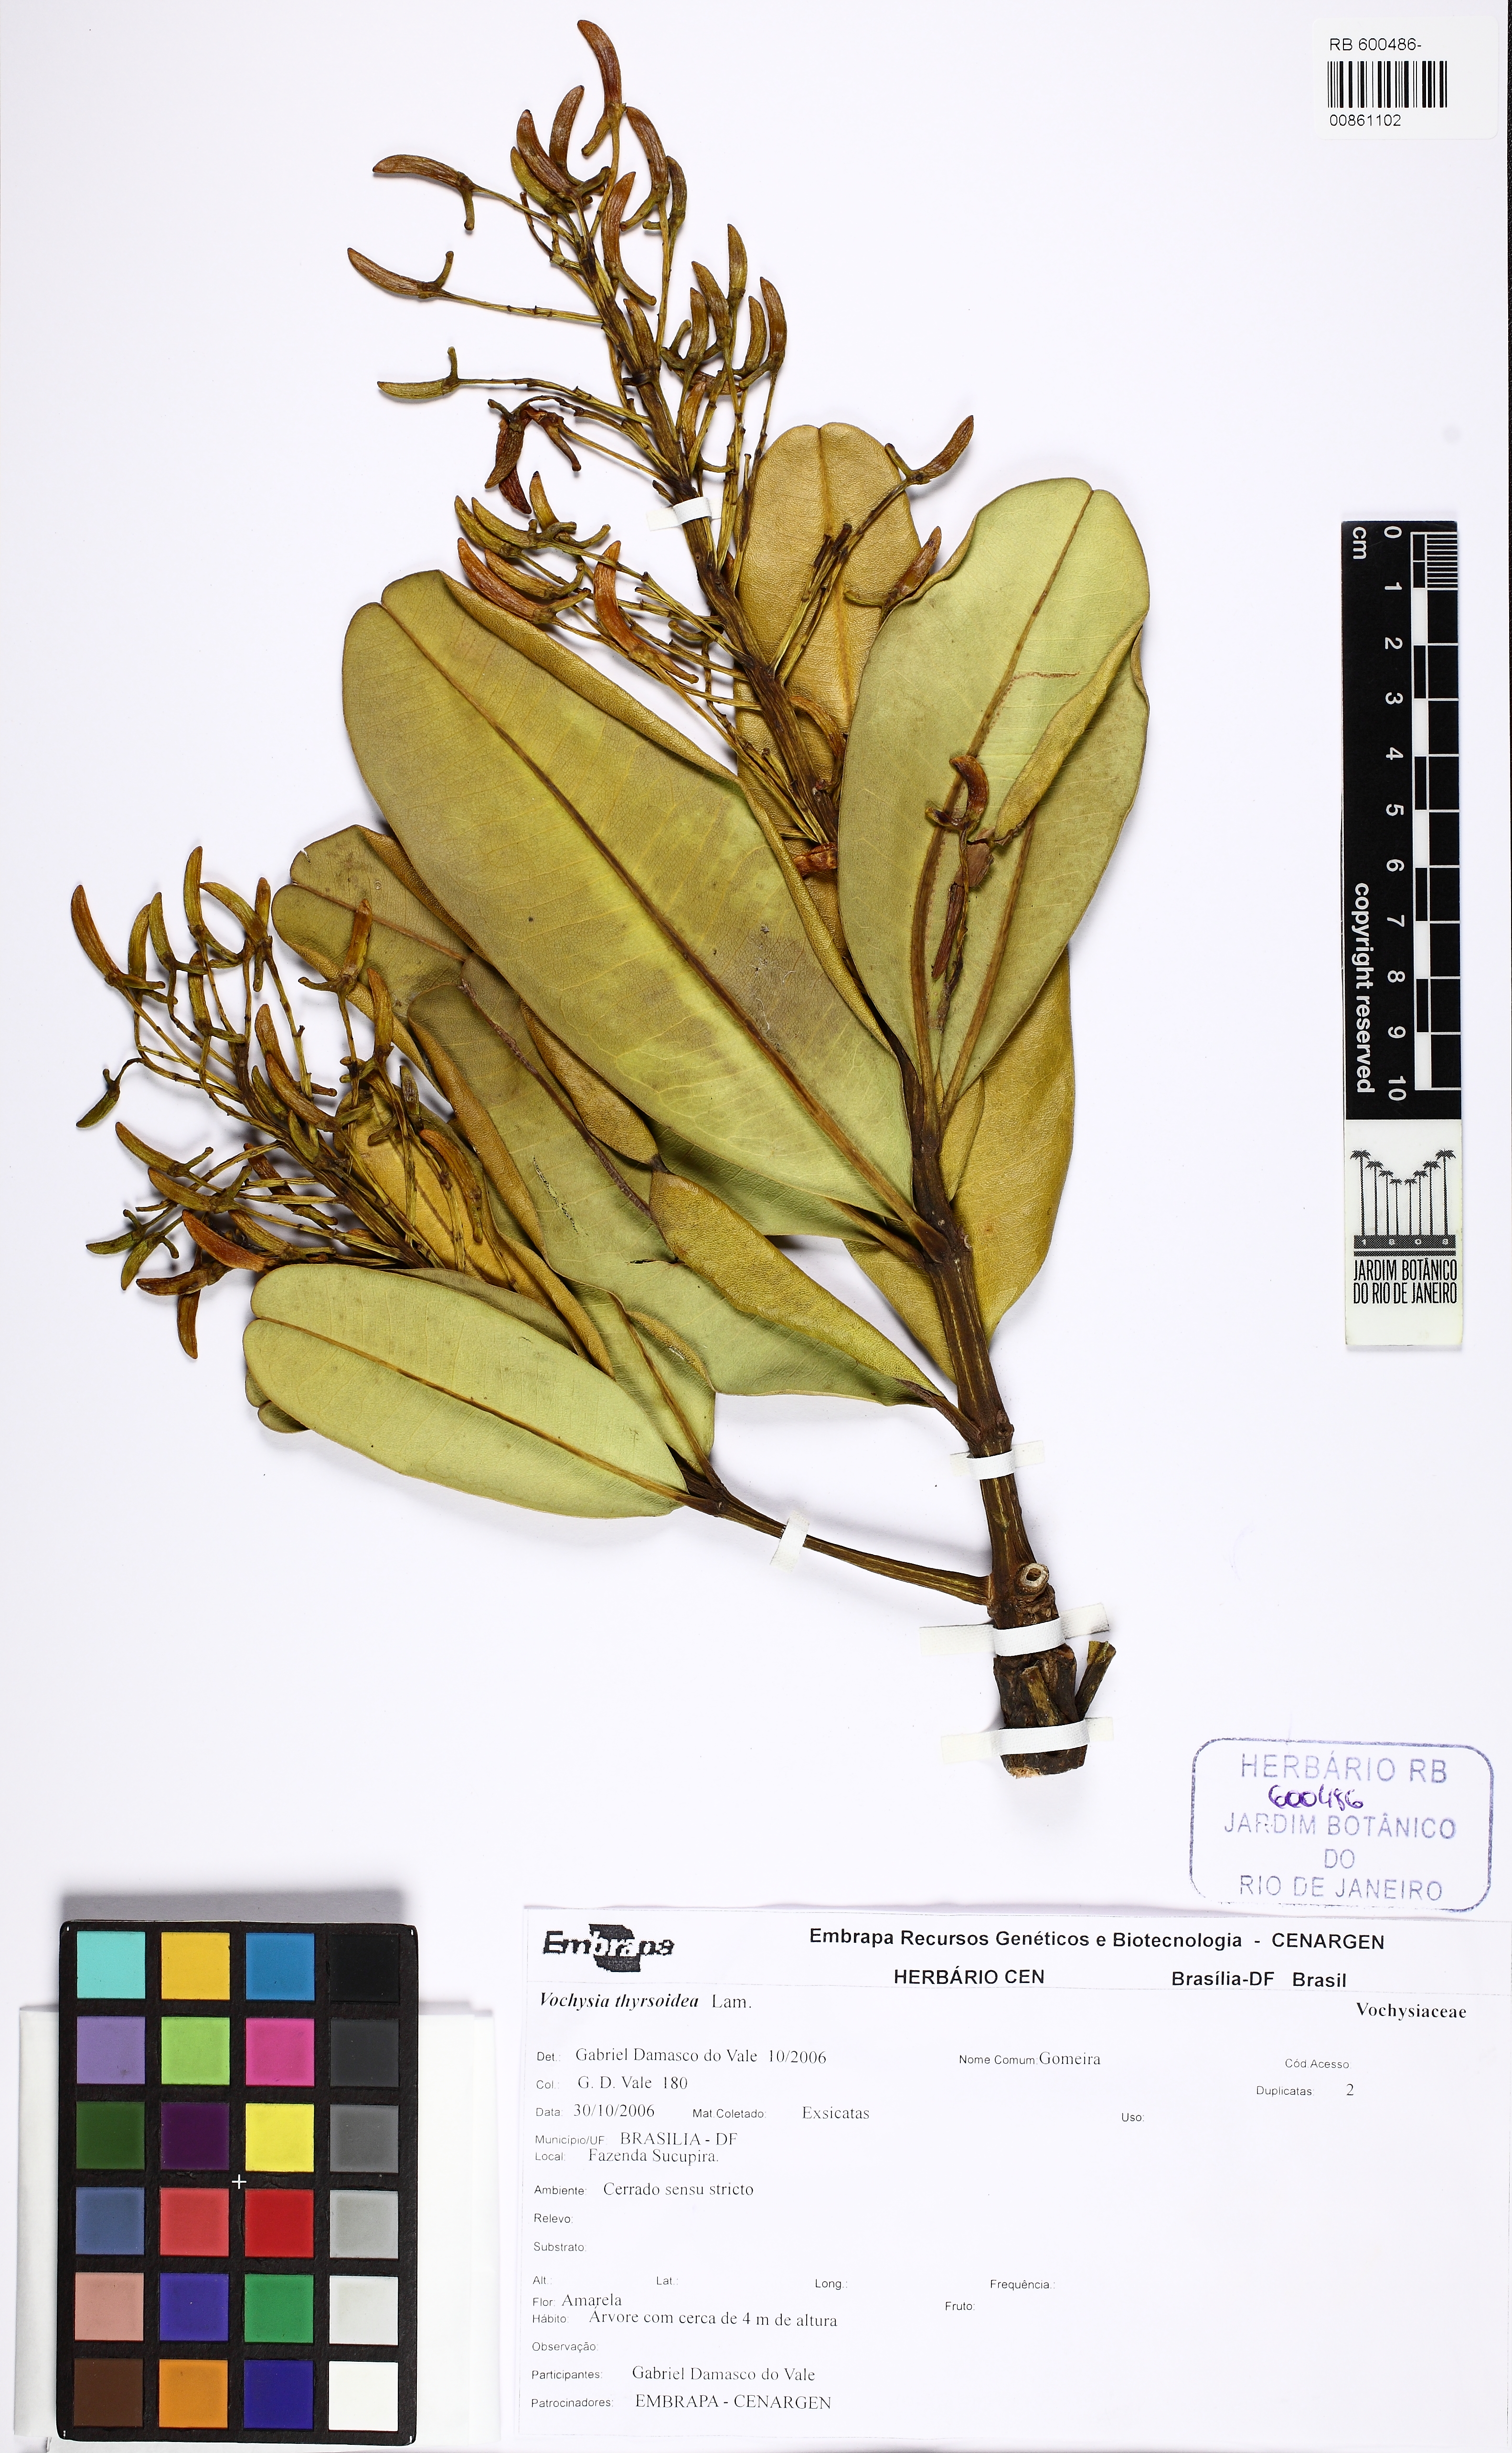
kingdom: Plantae
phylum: Tracheophyta
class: Magnoliopsida
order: Myrtales
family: Vochysiaceae
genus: Vochysia
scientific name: Vochysia thyrsoidea
